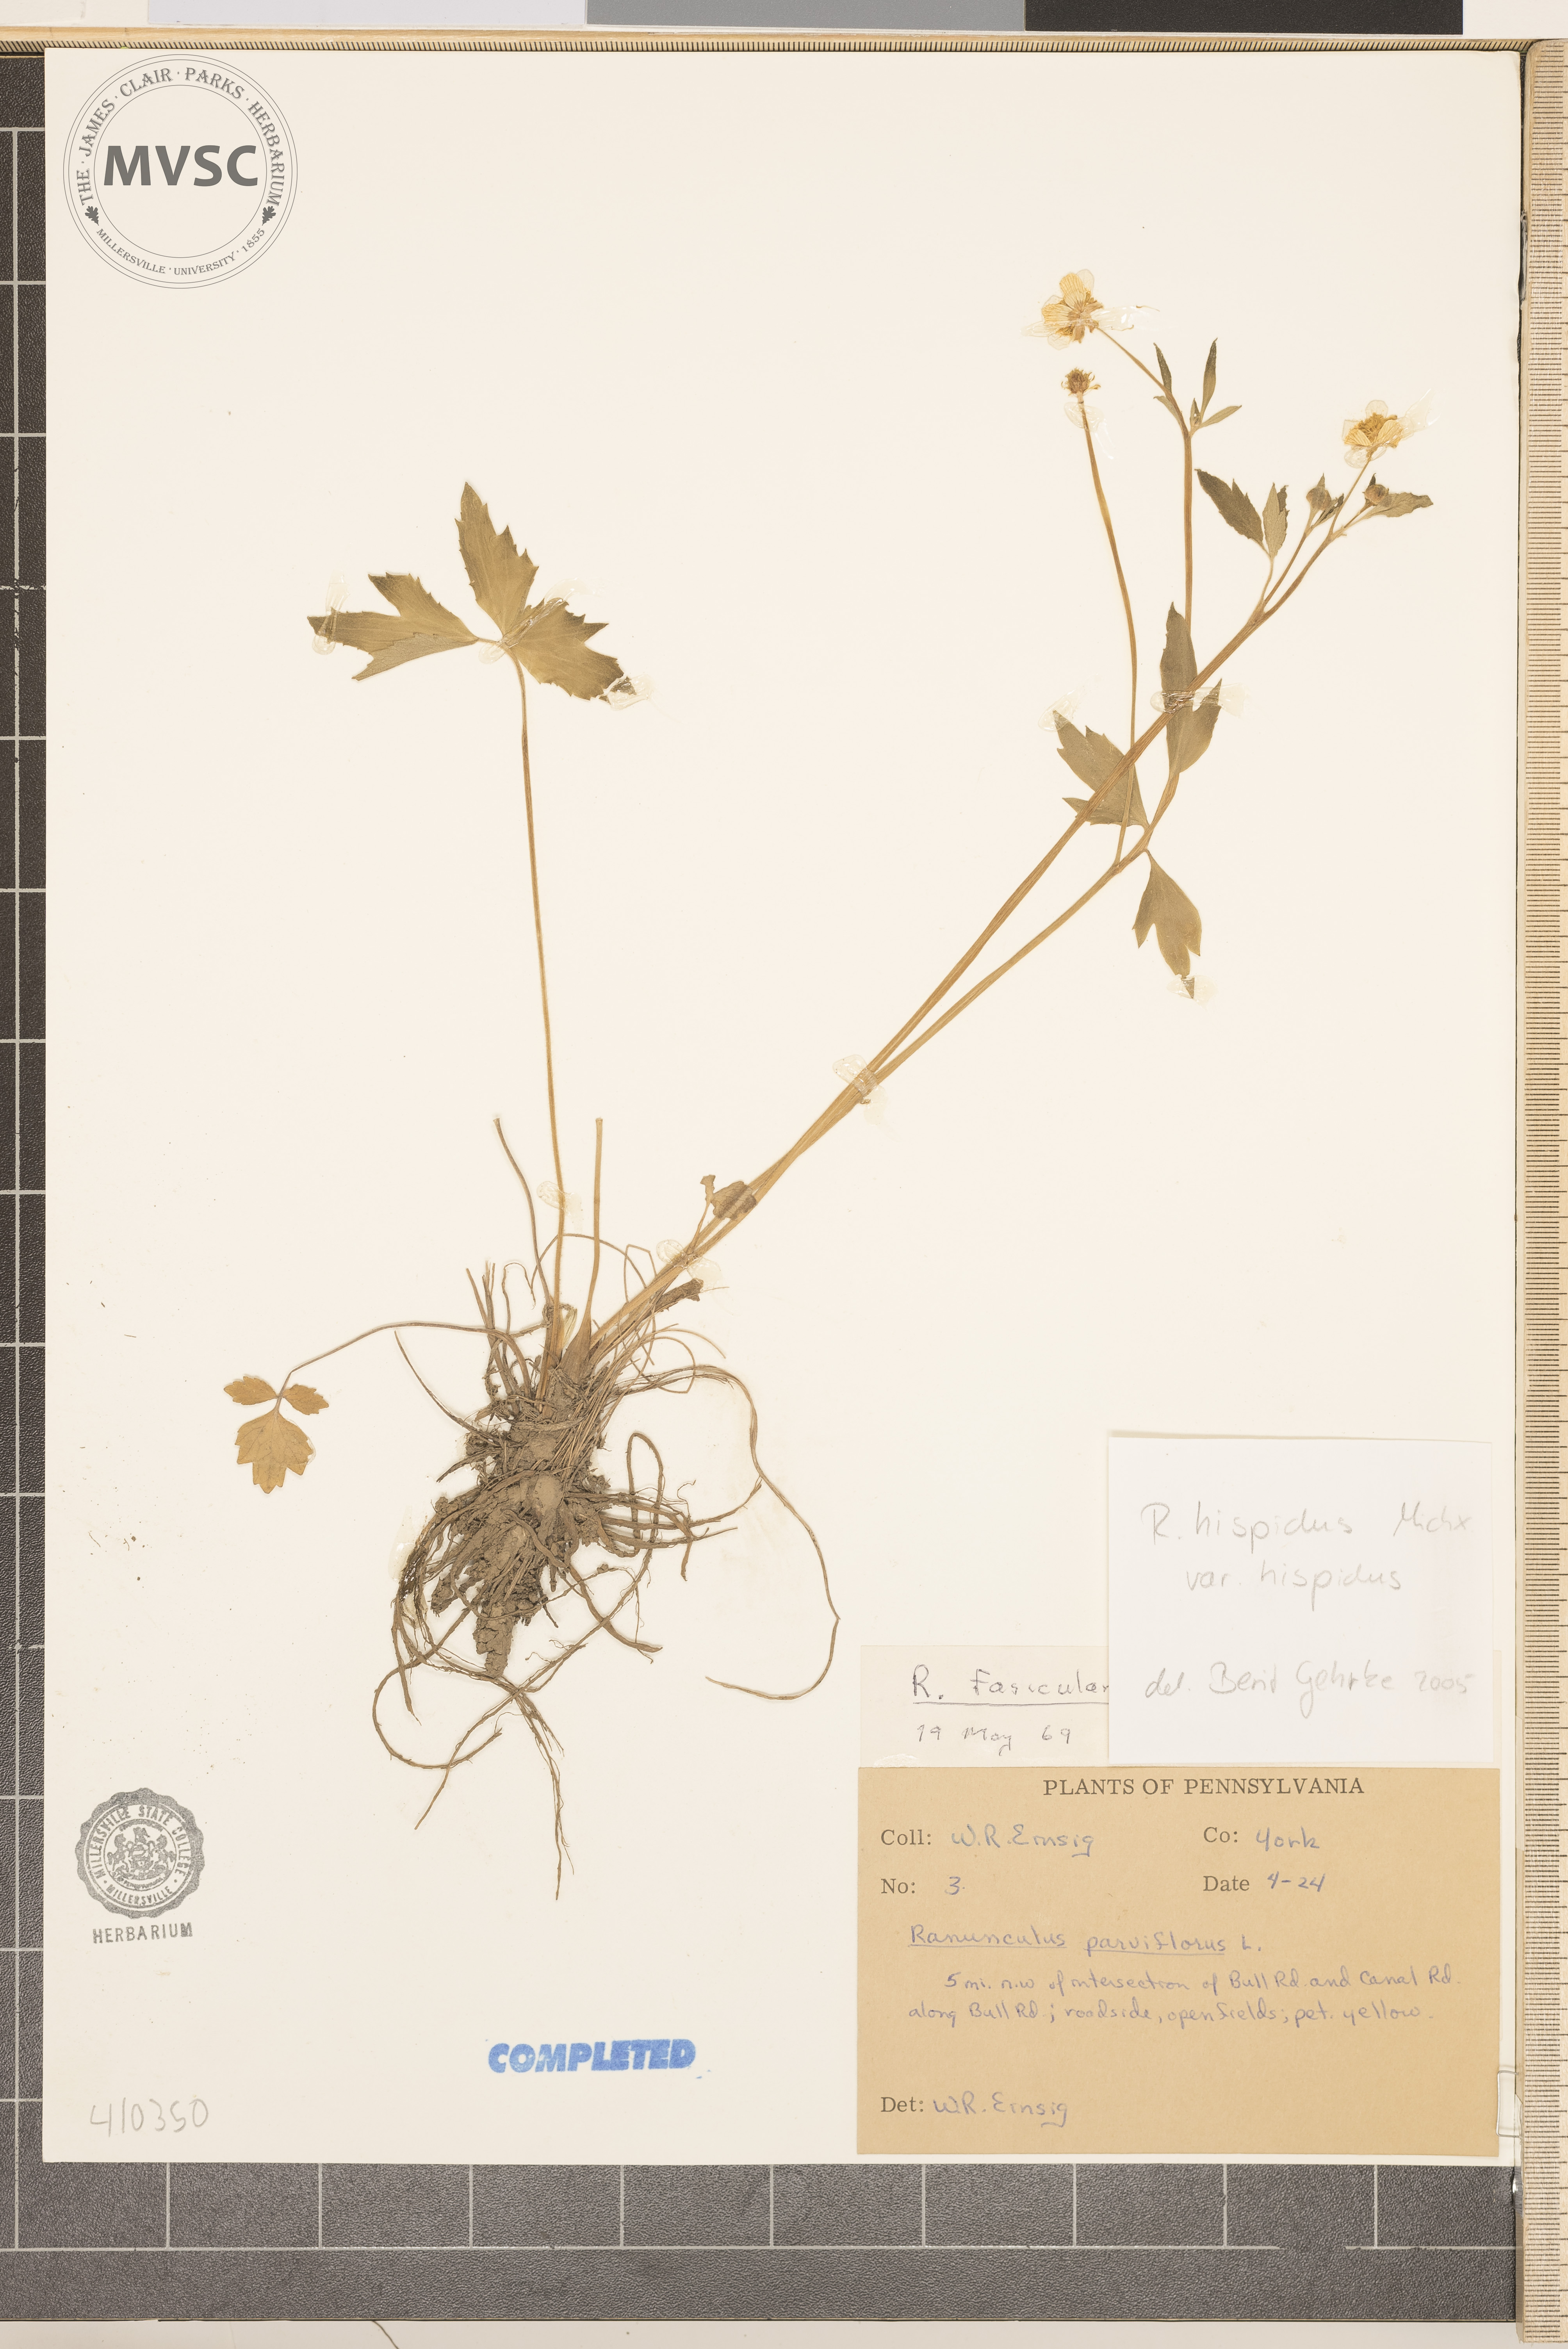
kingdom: Plantae
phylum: Tracheophyta
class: Magnoliopsida
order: Ranunculales
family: Ranunculaceae
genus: Ranunculus
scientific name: Ranunculus hispidus
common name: Bristly buttercup
